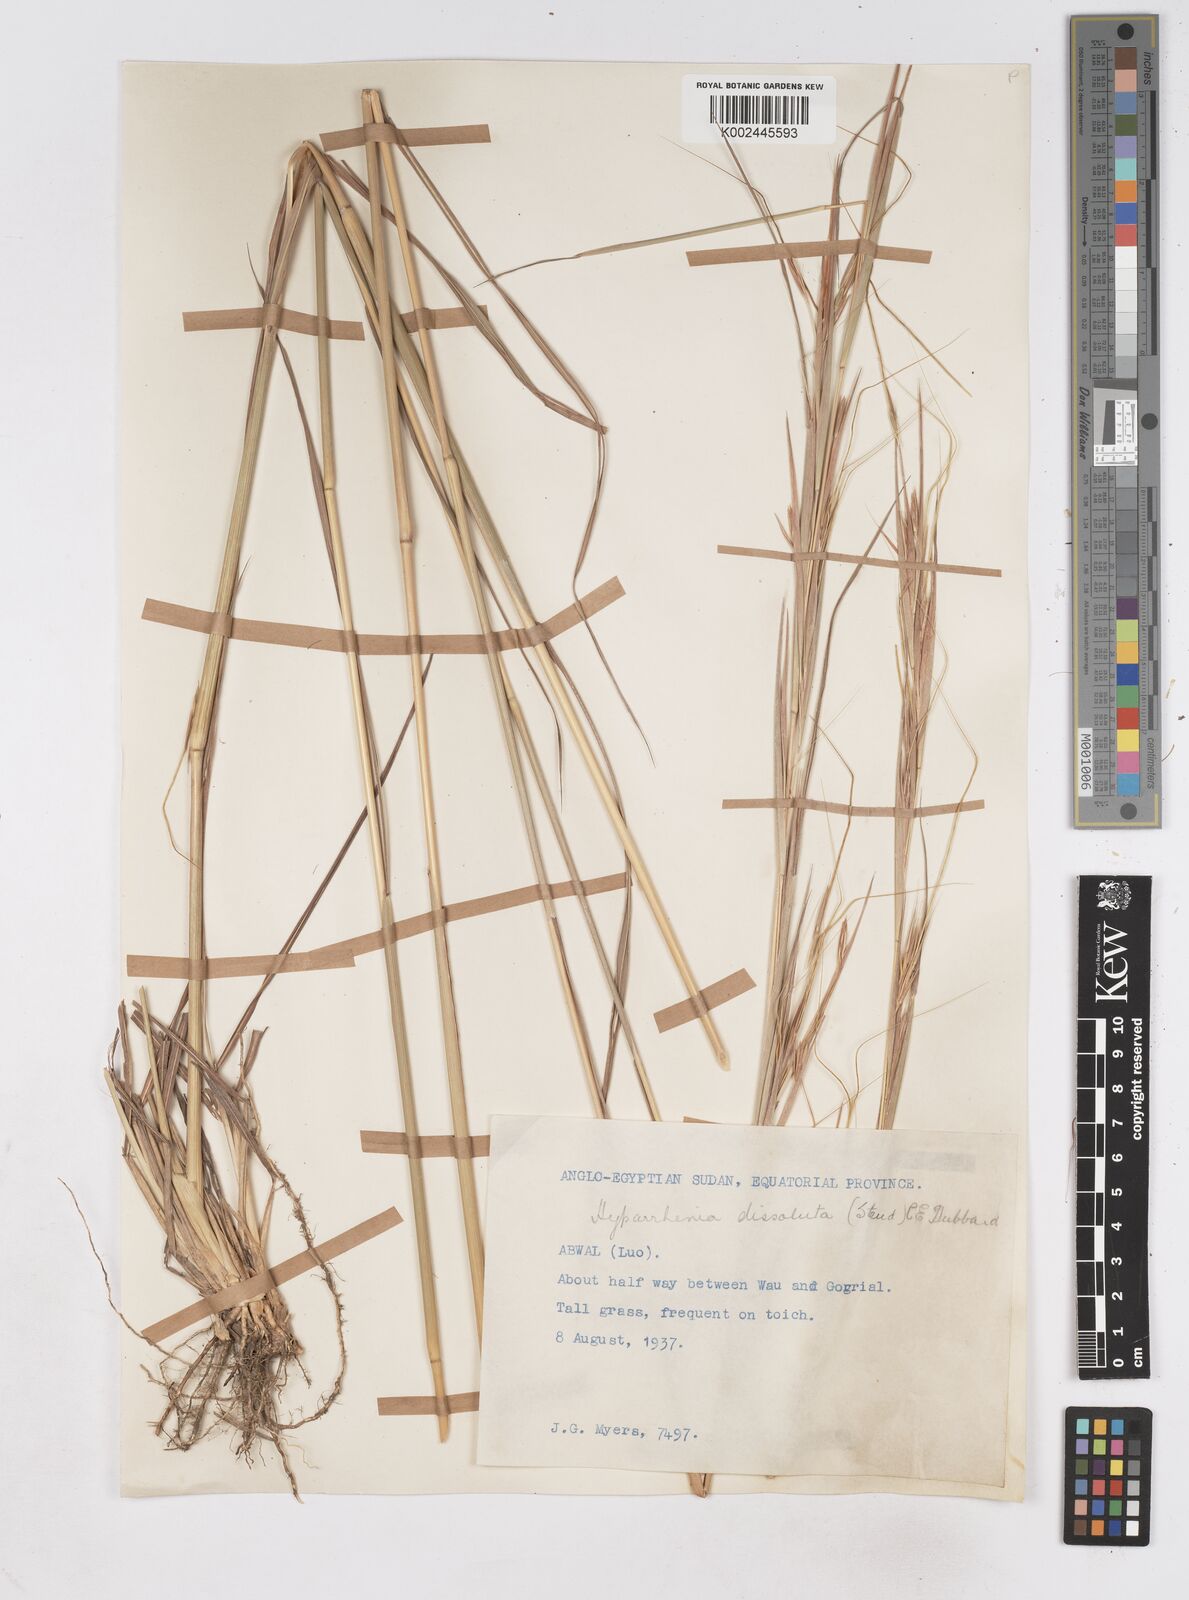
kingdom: Plantae
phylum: Tracheophyta
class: Liliopsida
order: Poales
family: Poaceae
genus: Hyperthelia
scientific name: Hyperthelia dissoluta
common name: Yellow thatching grass
